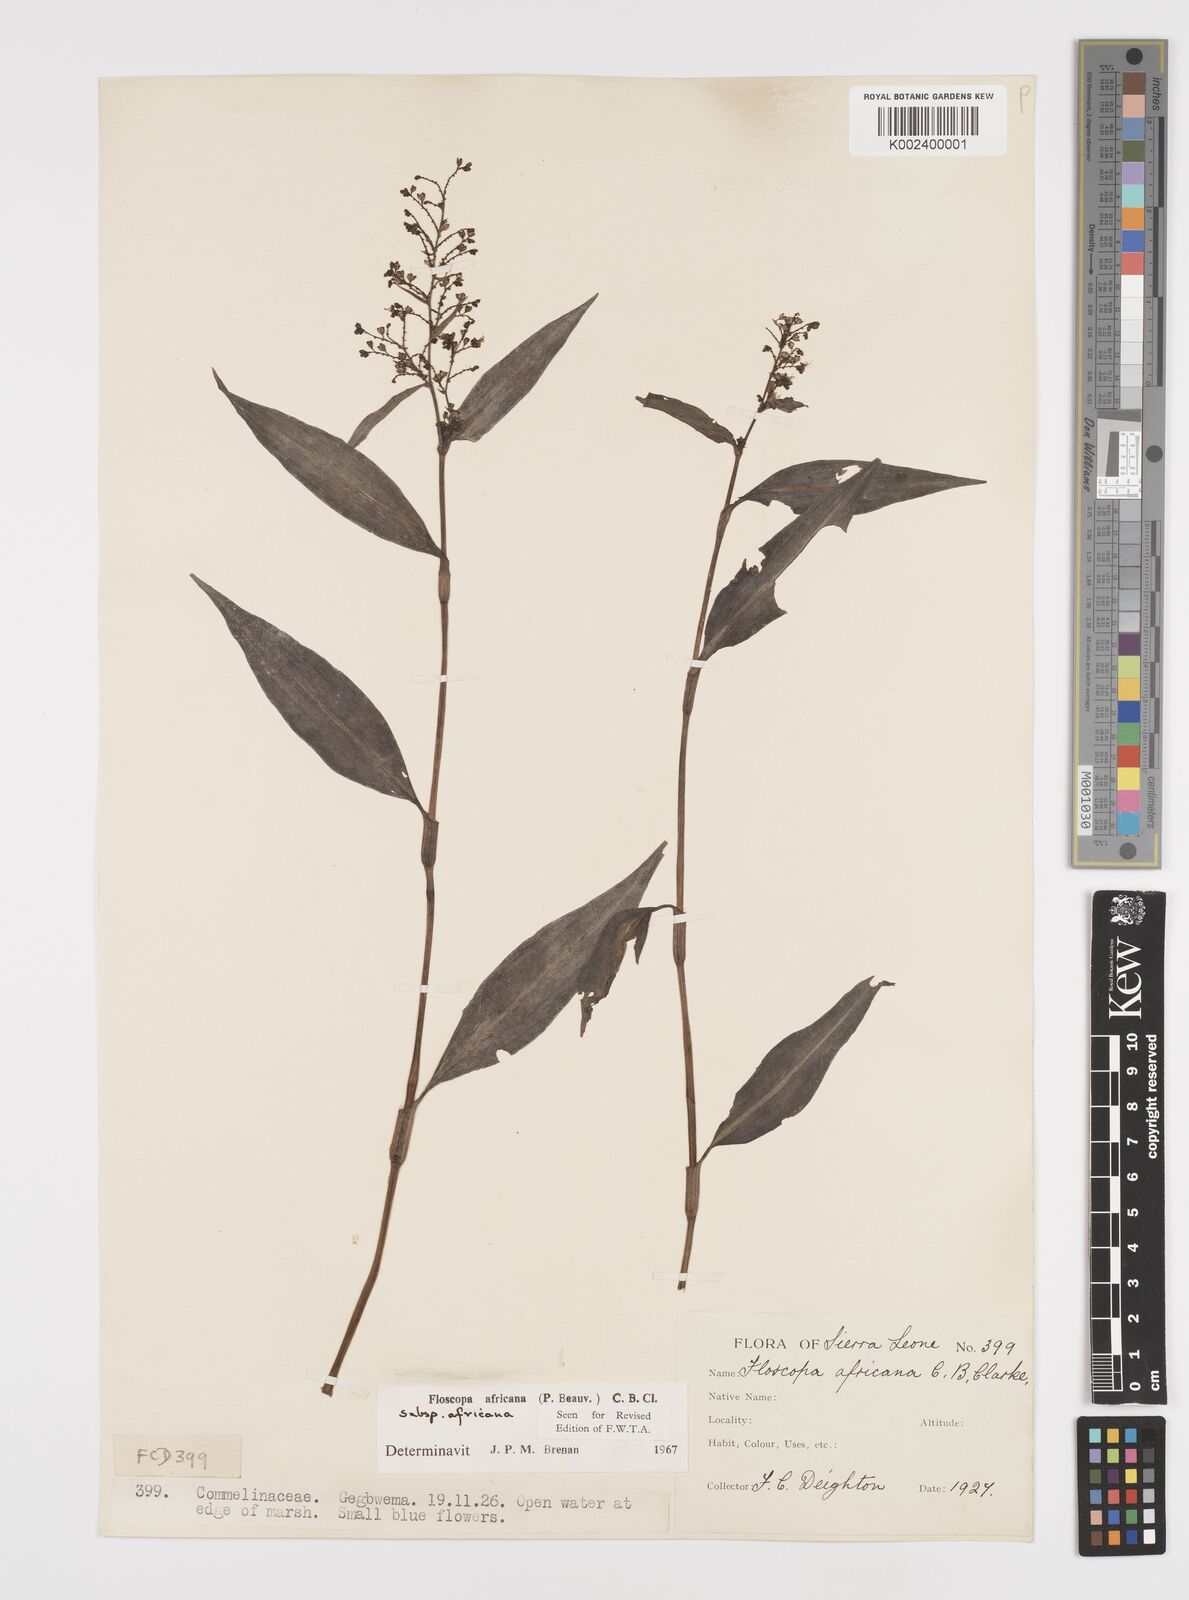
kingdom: Plantae
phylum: Tracheophyta
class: Liliopsida
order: Commelinales
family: Commelinaceae
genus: Floscopa
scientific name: Floscopa africana
